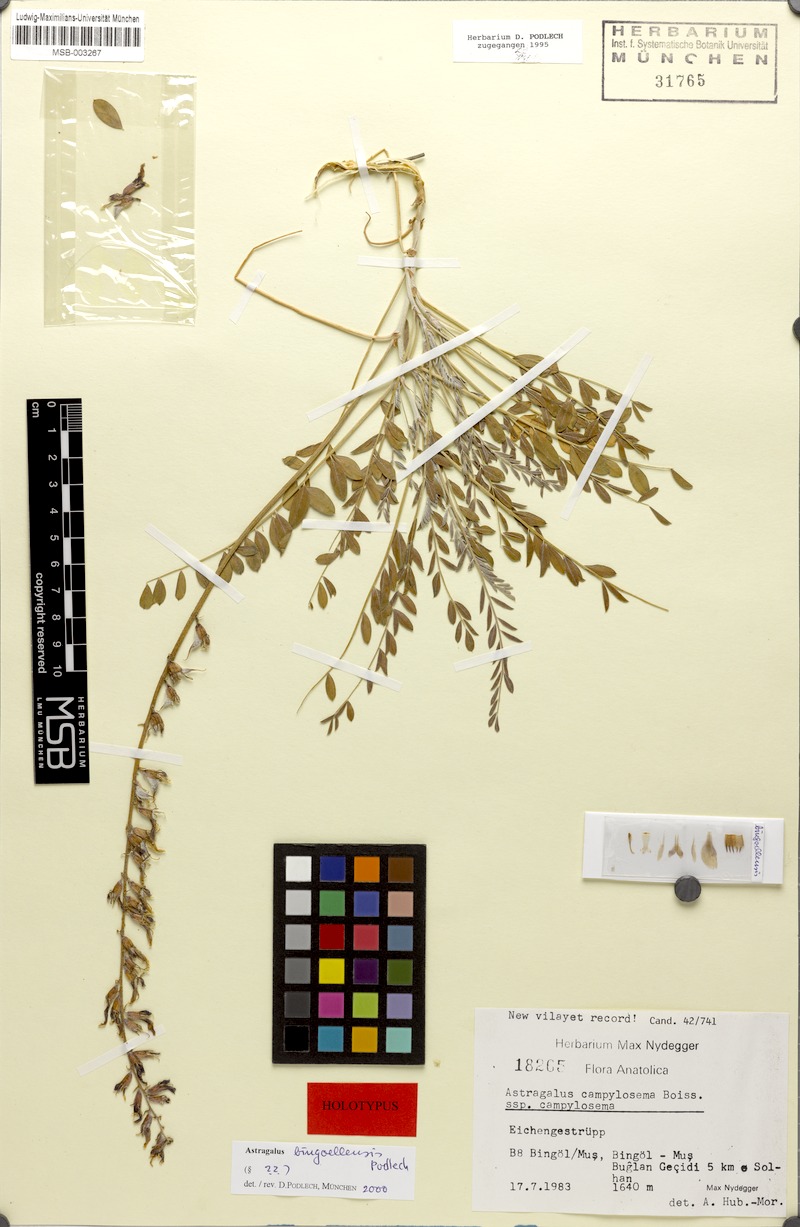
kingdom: Plantae
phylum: Tracheophyta
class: Magnoliopsida
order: Fabales
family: Fabaceae
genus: Astragalus
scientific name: Astragalus aduncus
